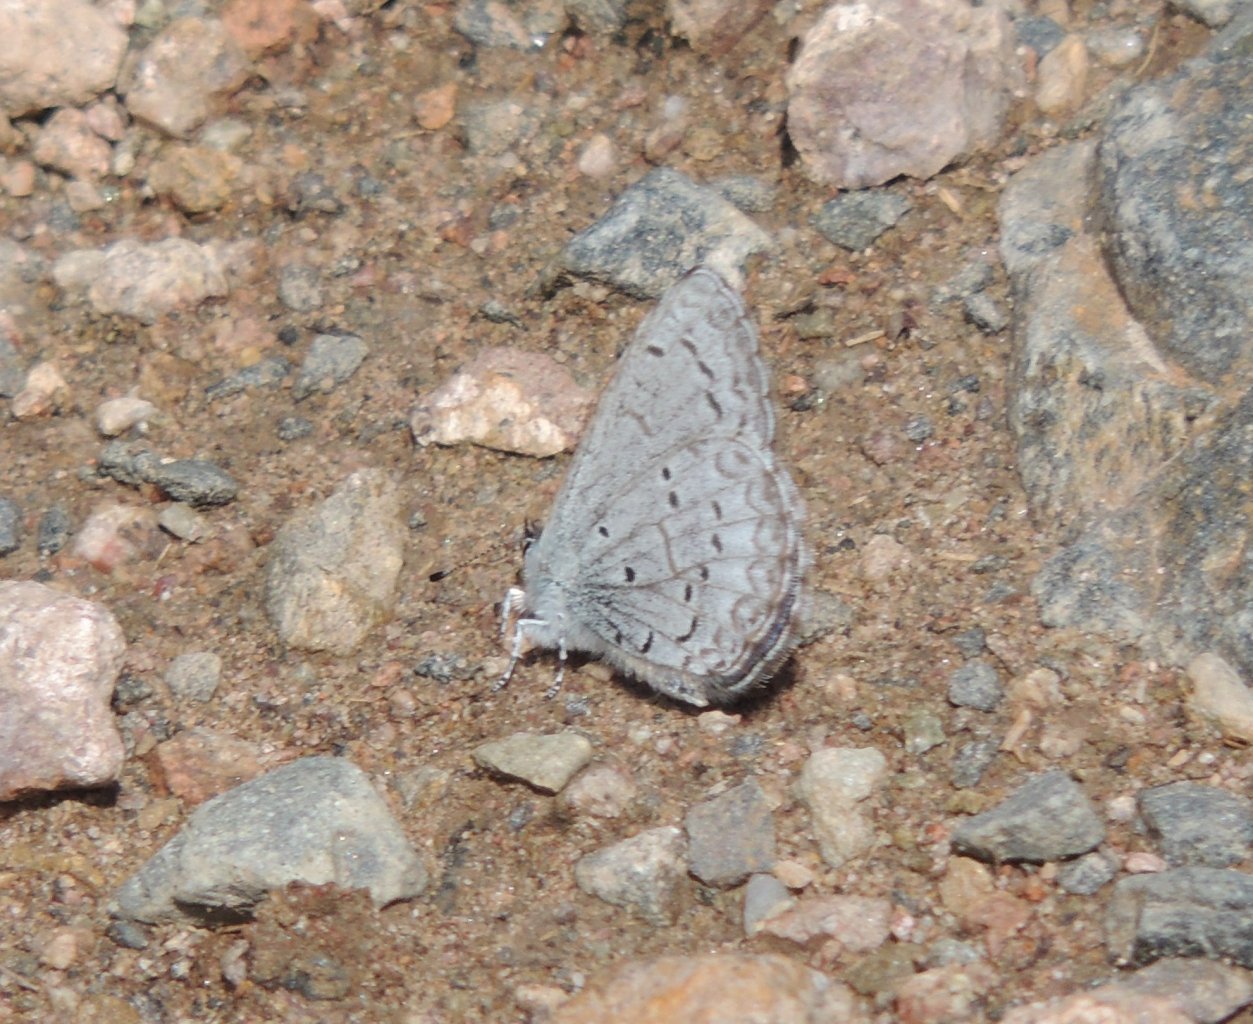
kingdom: Animalia
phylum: Arthropoda
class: Insecta
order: Lepidoptera
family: Lycaenidae
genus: Celastrina
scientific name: Celastrina ladon
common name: Echo Azure
